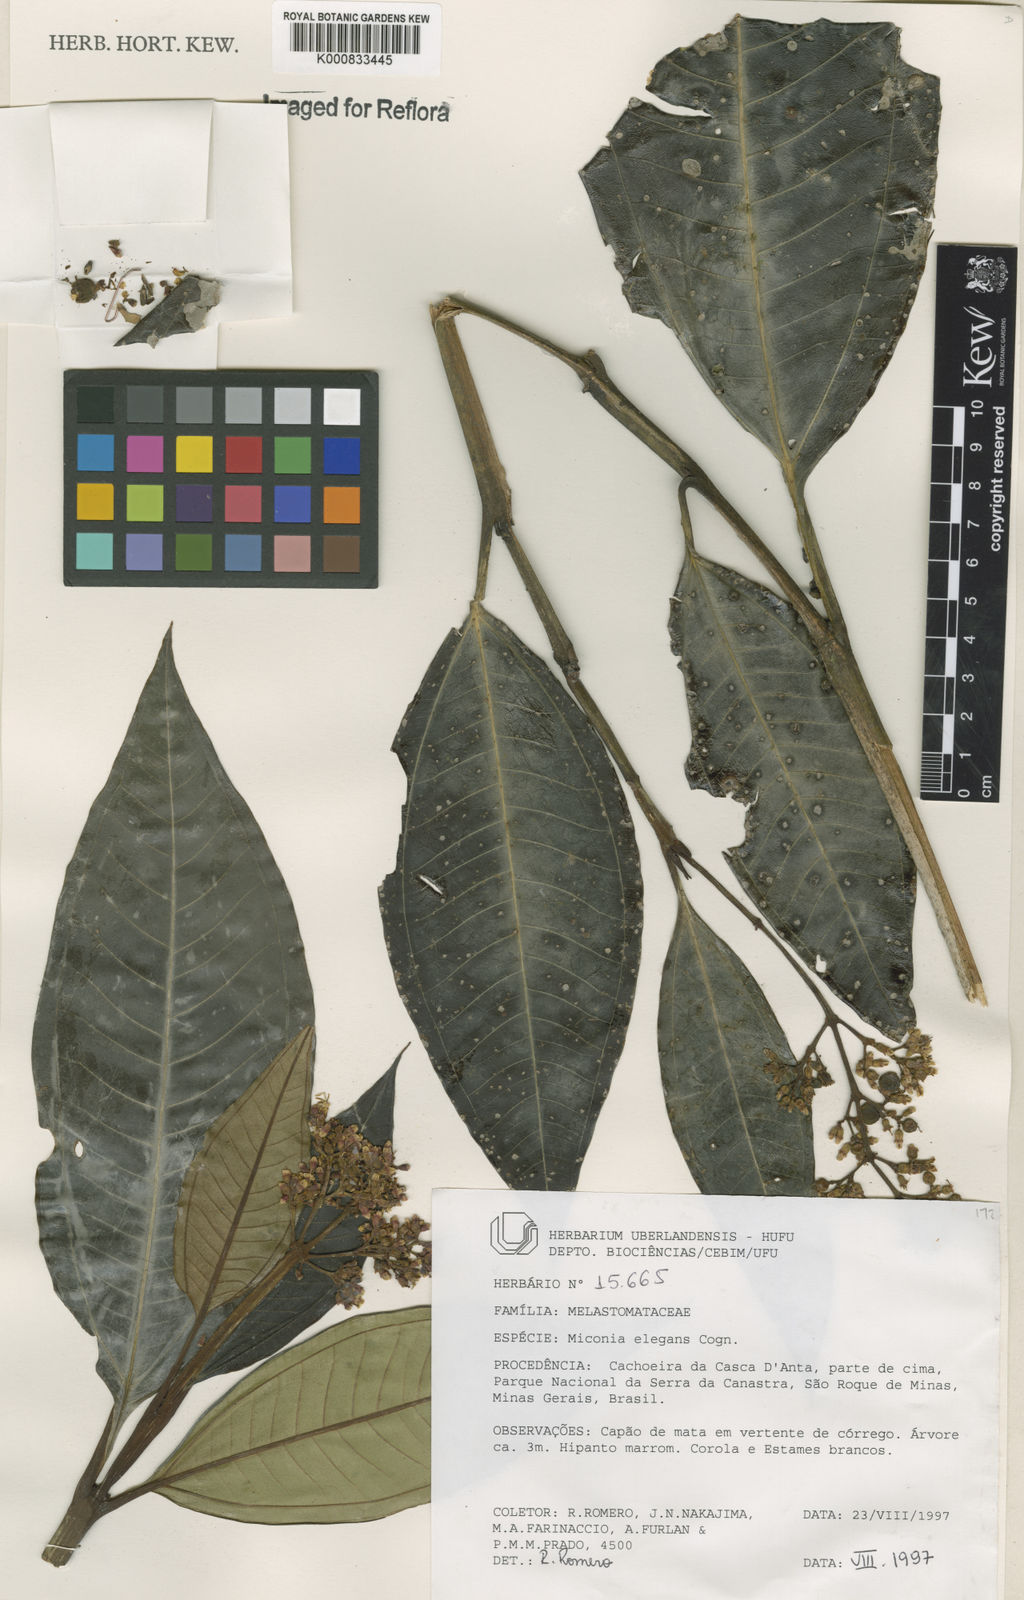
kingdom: Plantae
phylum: Tracheophyta
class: Magnoliopsida
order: Myrtales
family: Melastomataceae
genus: Miconia
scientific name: Miconia elegans
